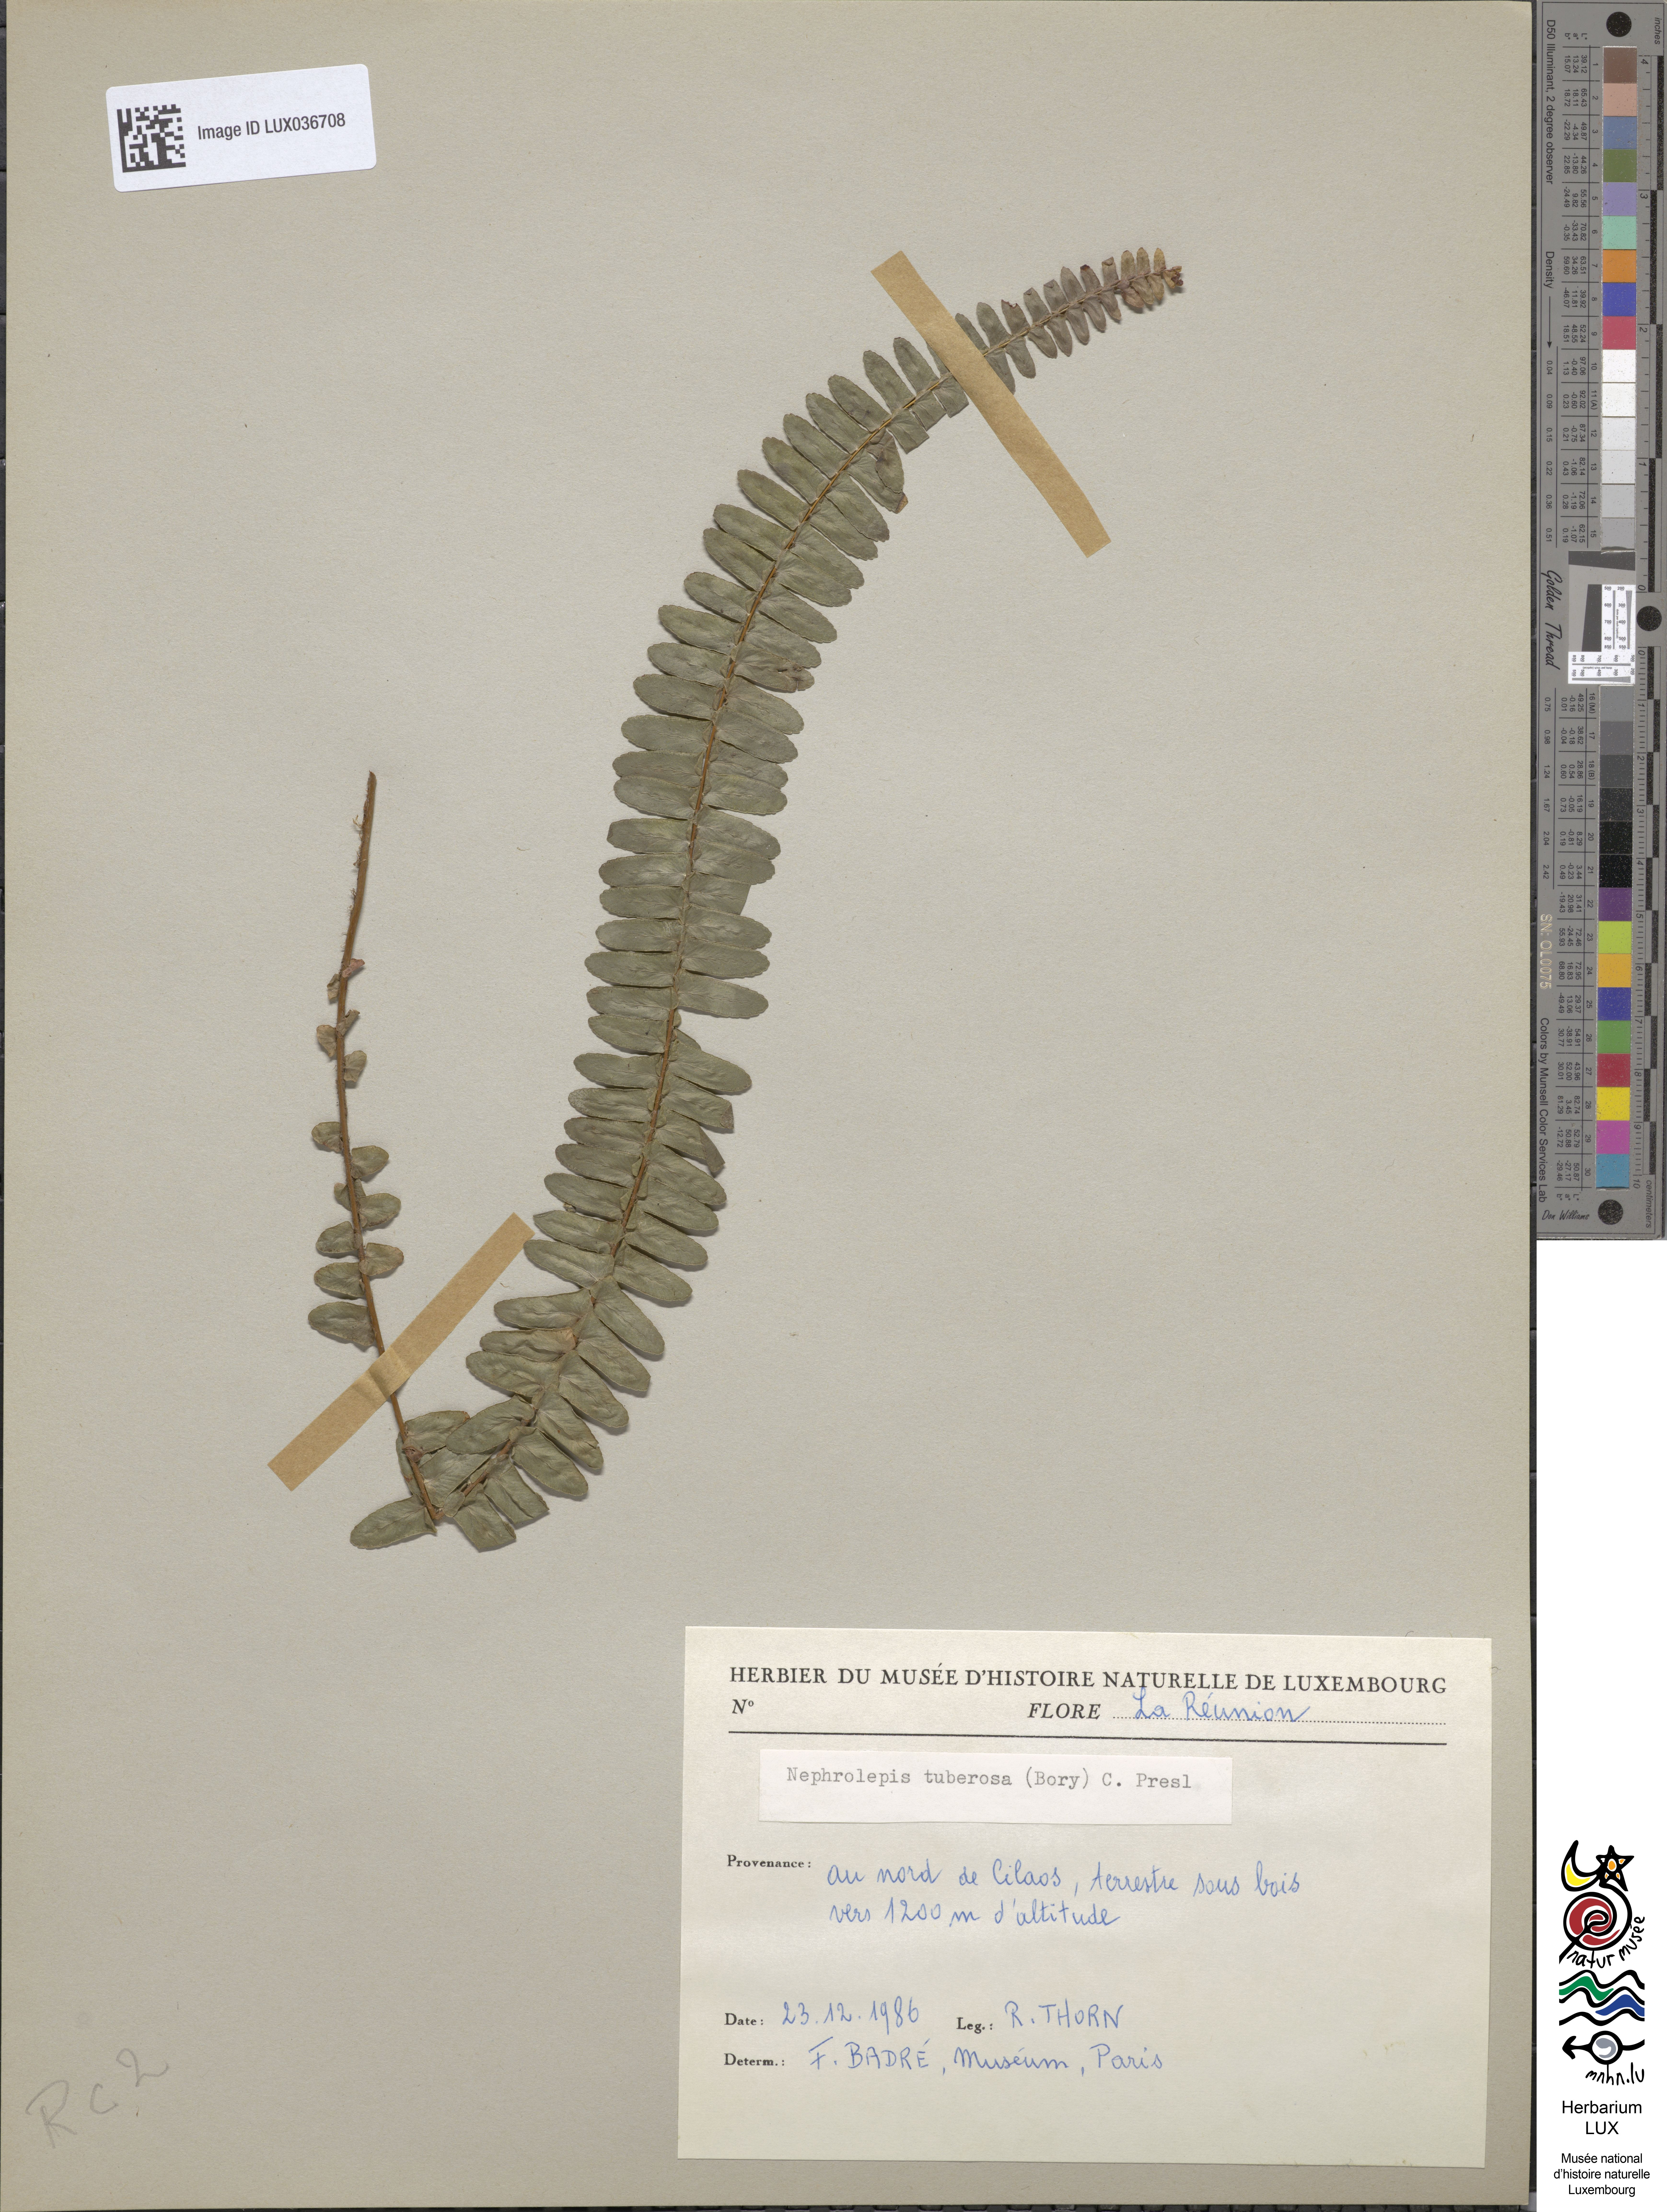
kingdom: Plantae
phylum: Tracheophyta
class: Polypodiopsida
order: Polypodiales
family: Nephrolepidaceae
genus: Nephrolepis
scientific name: Nephrolepis cordifolia
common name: Narrow swordfern
